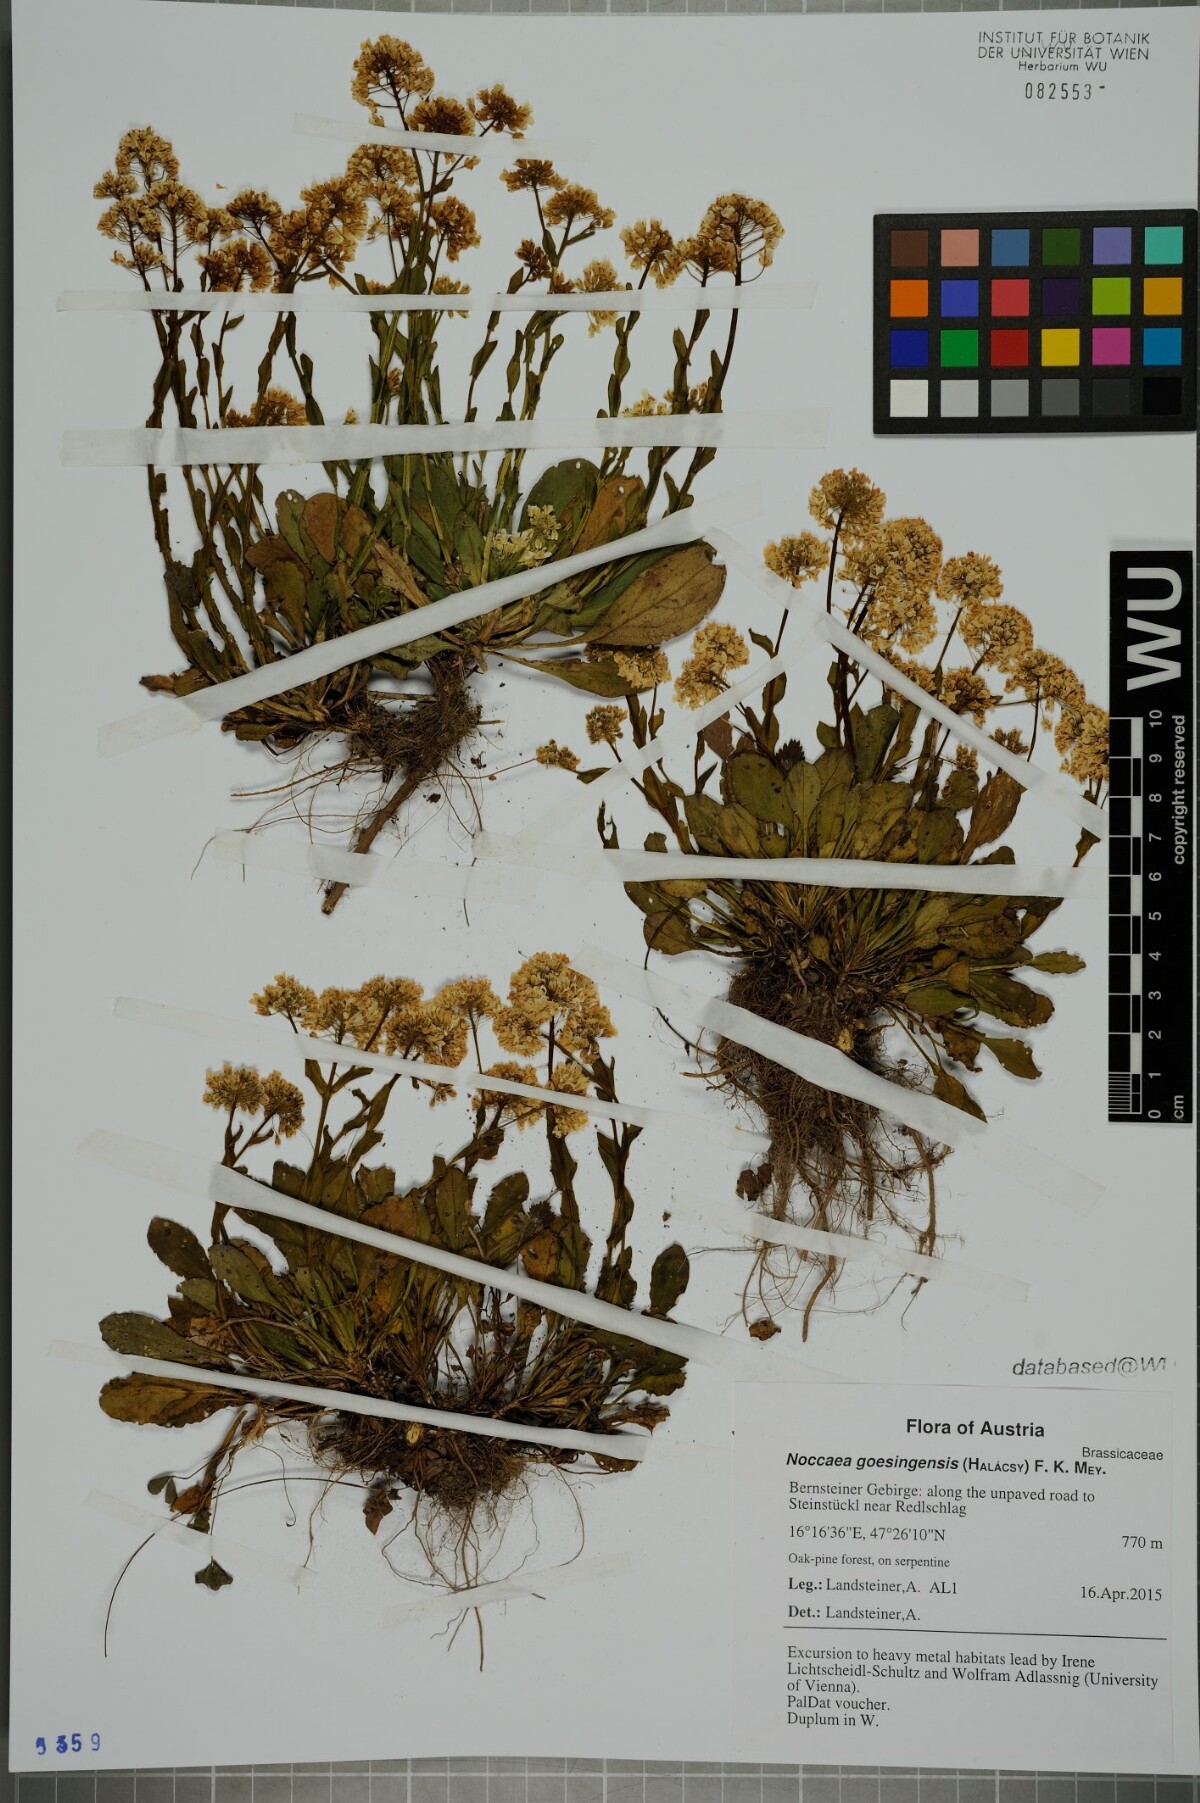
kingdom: Plantae
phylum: Tracheophyta
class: Magnoliopsida
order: Brassicales
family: Brassicaceae
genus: Noccaea
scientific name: Noccaea goesingensis
